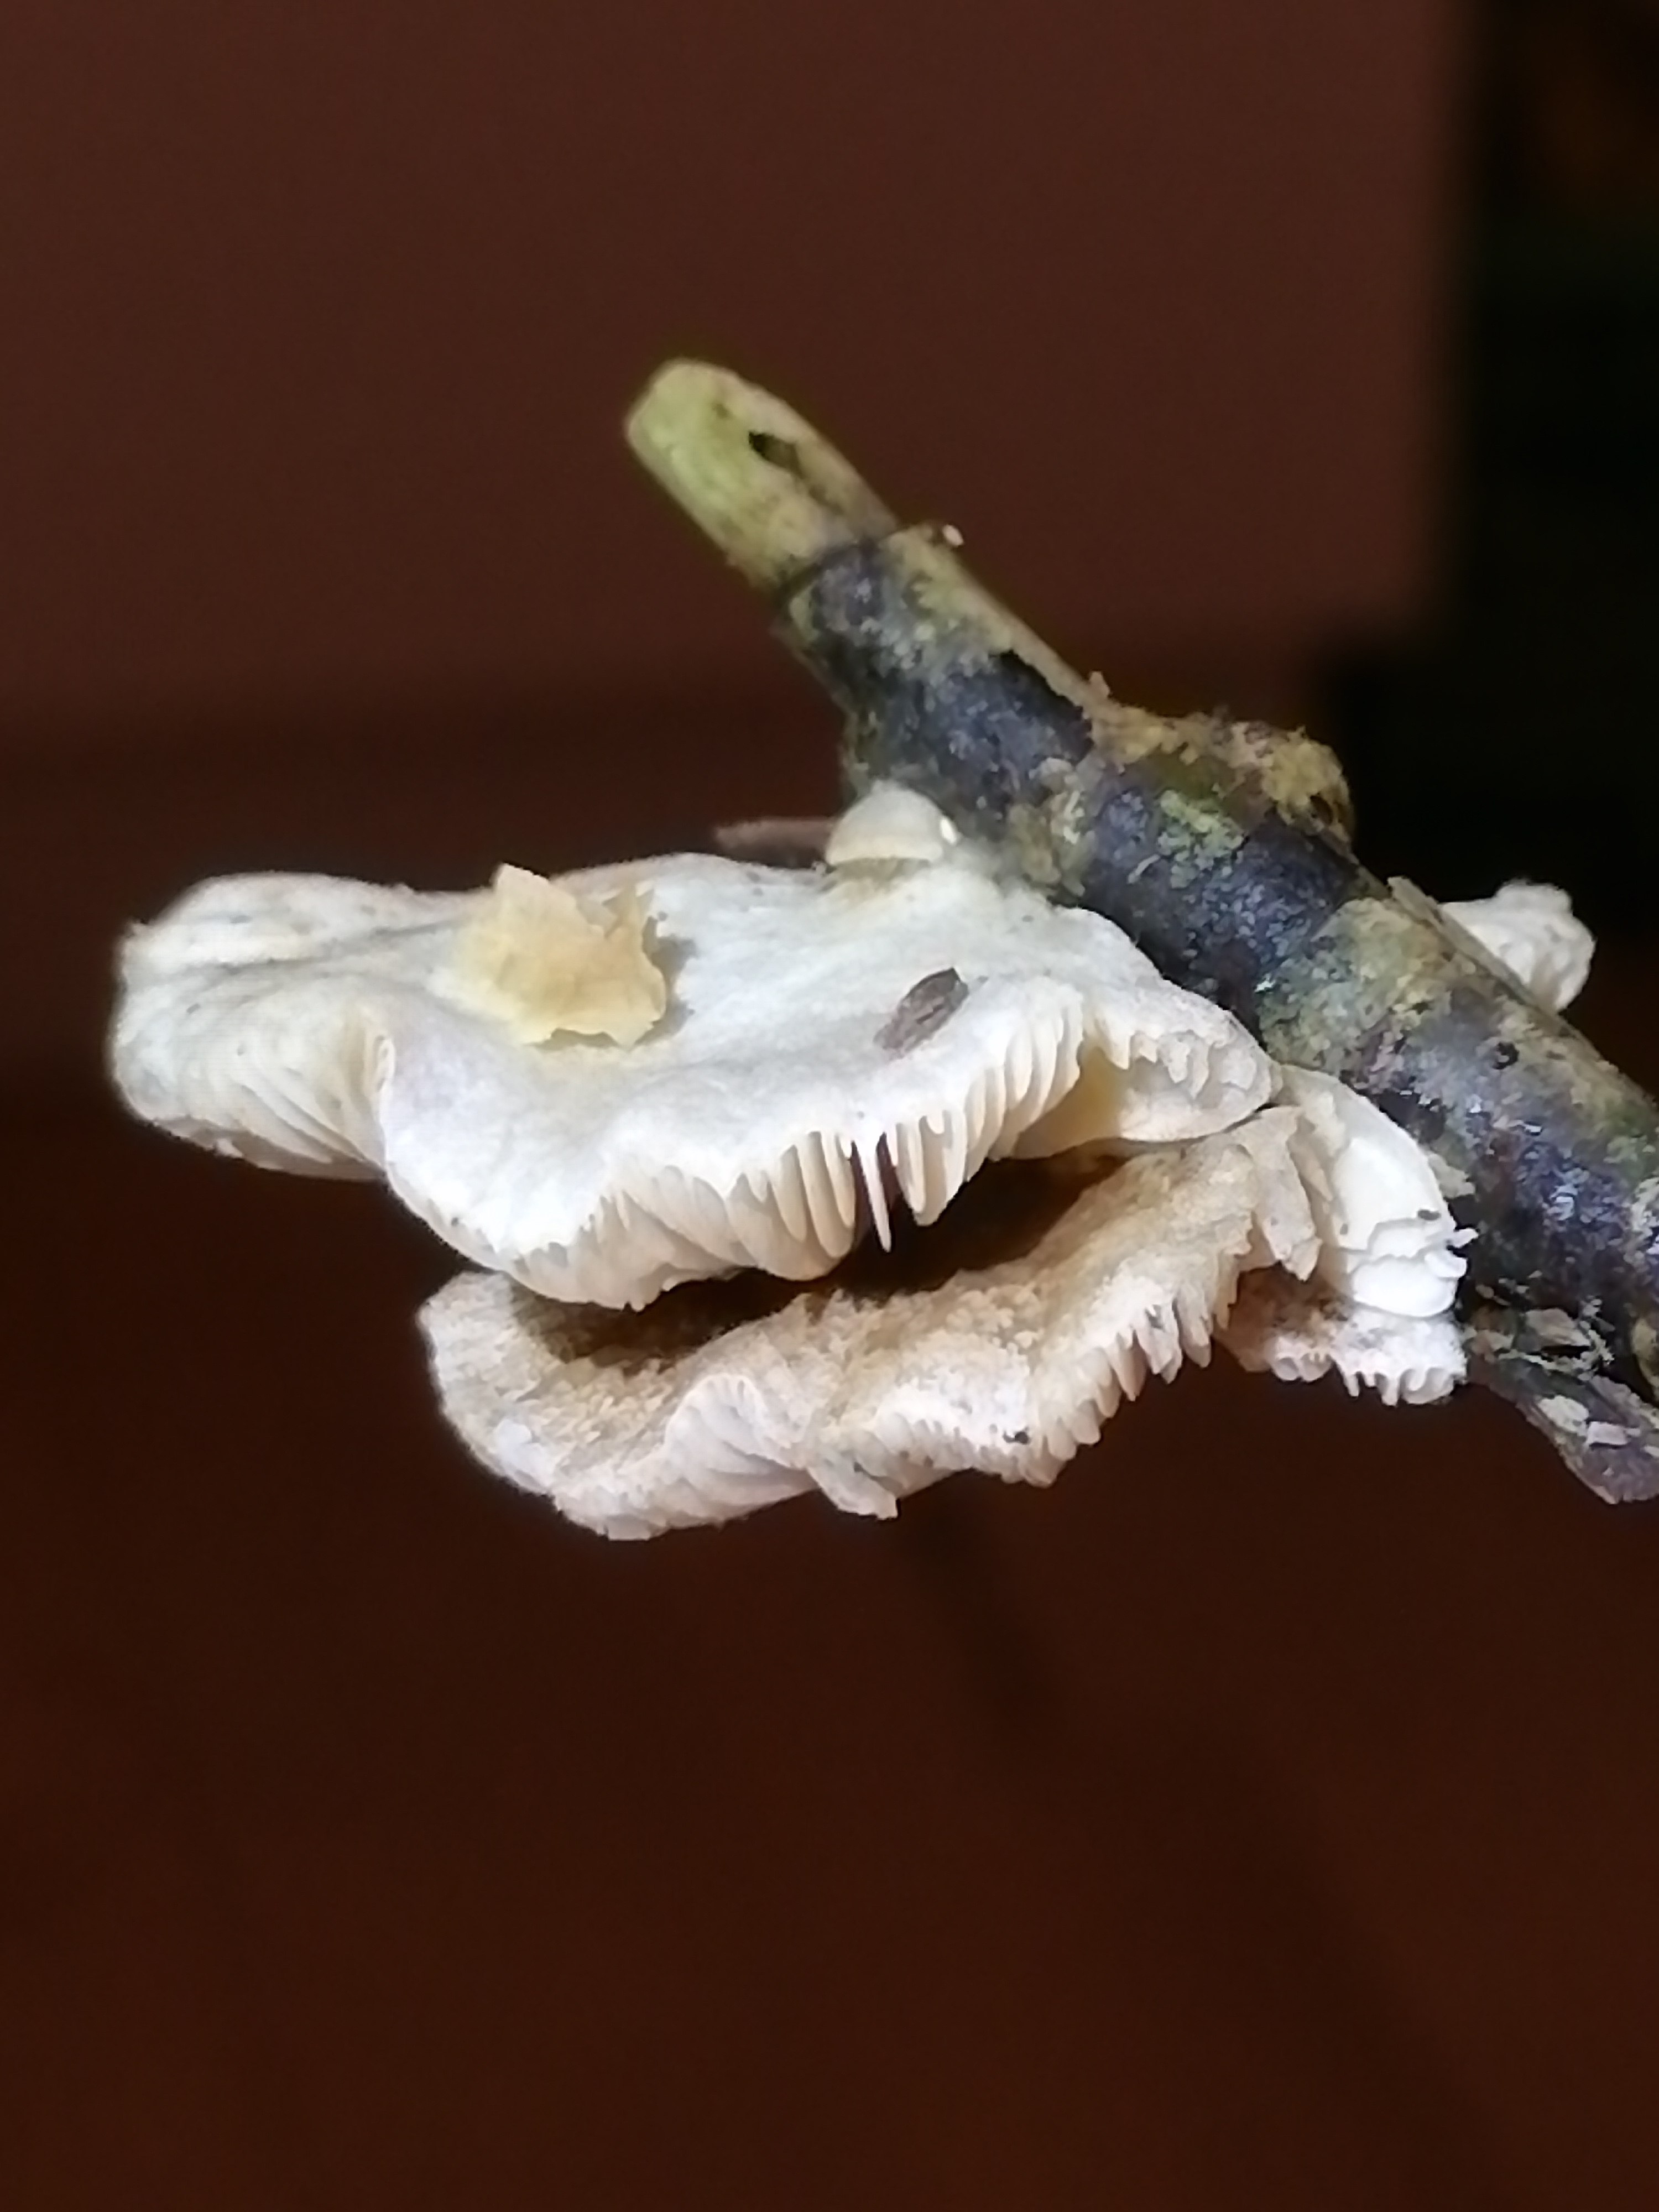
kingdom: Fungi
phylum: Basidiomycota
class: Agaricomycetes
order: Agaricales
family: Crepidotaceae
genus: Crepidotus
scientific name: Crepidotus
